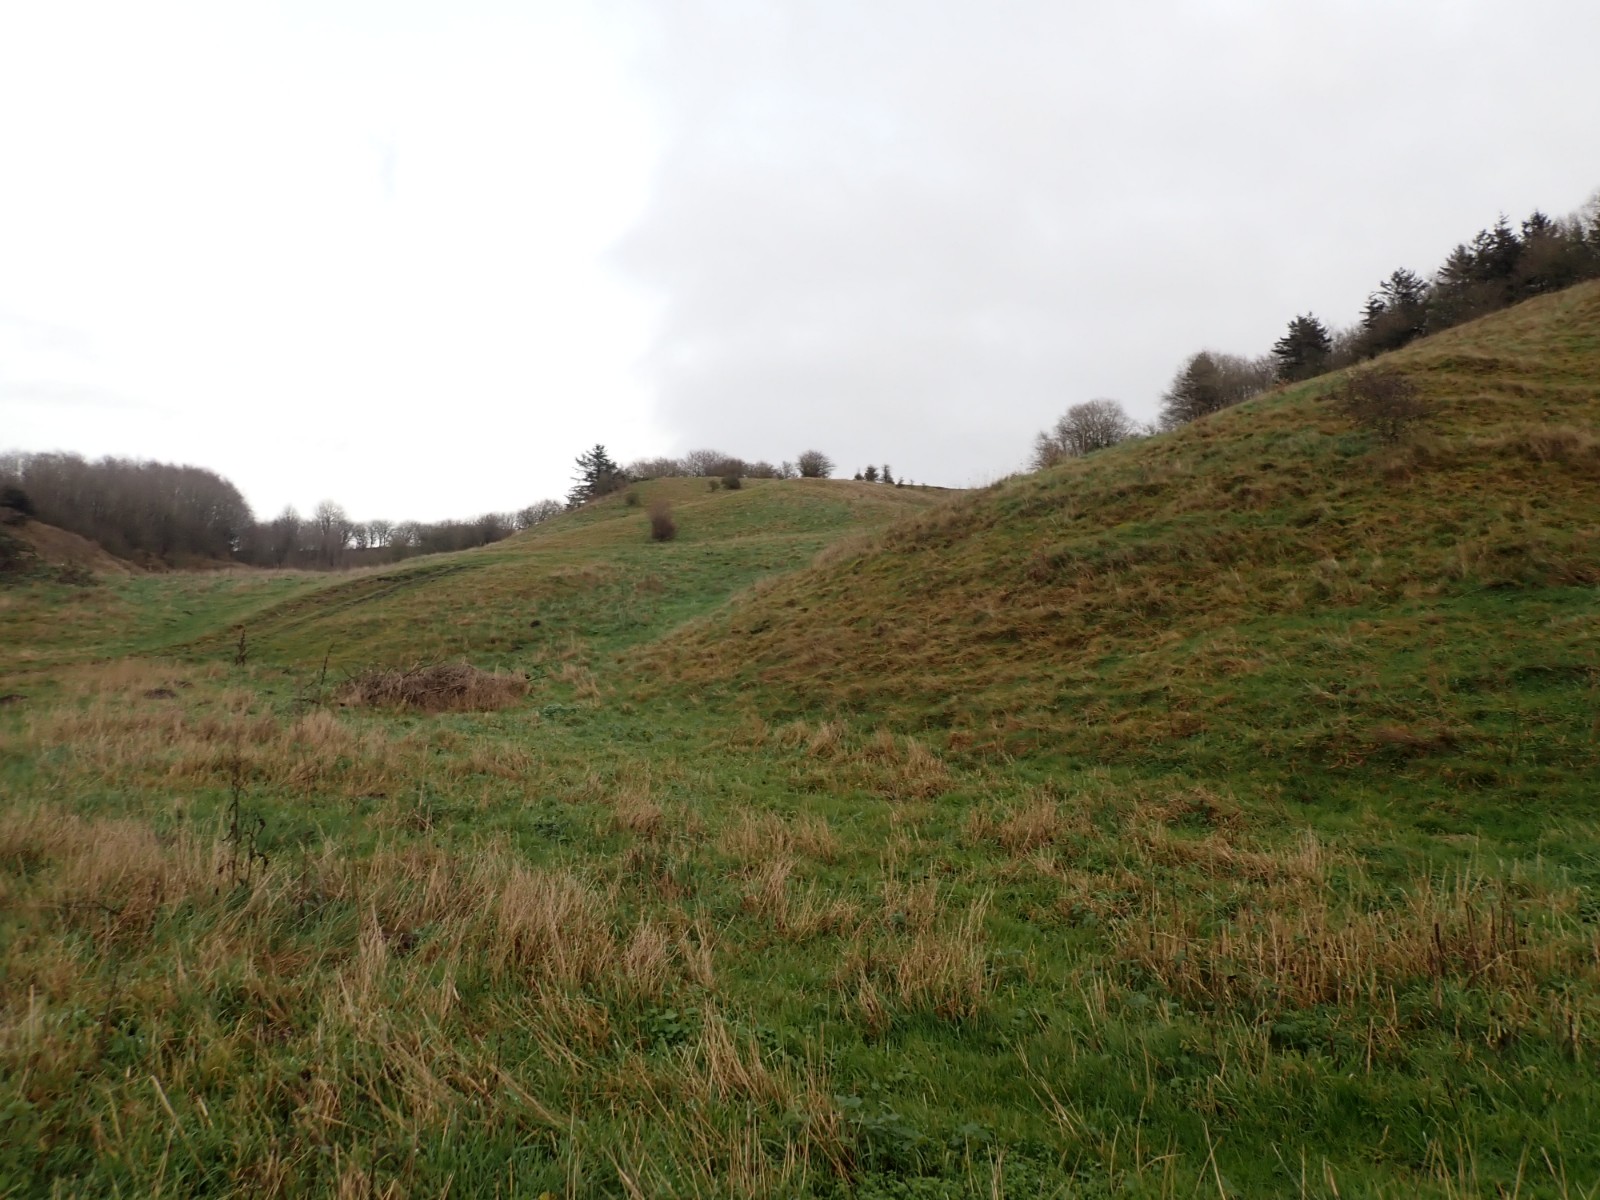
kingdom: Fungi
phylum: Basidiomycota
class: Agaricomycetes
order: Agaricales
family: Hygrophoraceae
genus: Cuphophyllus
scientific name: Cuphophyllus pratensis
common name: eng-vokshat
